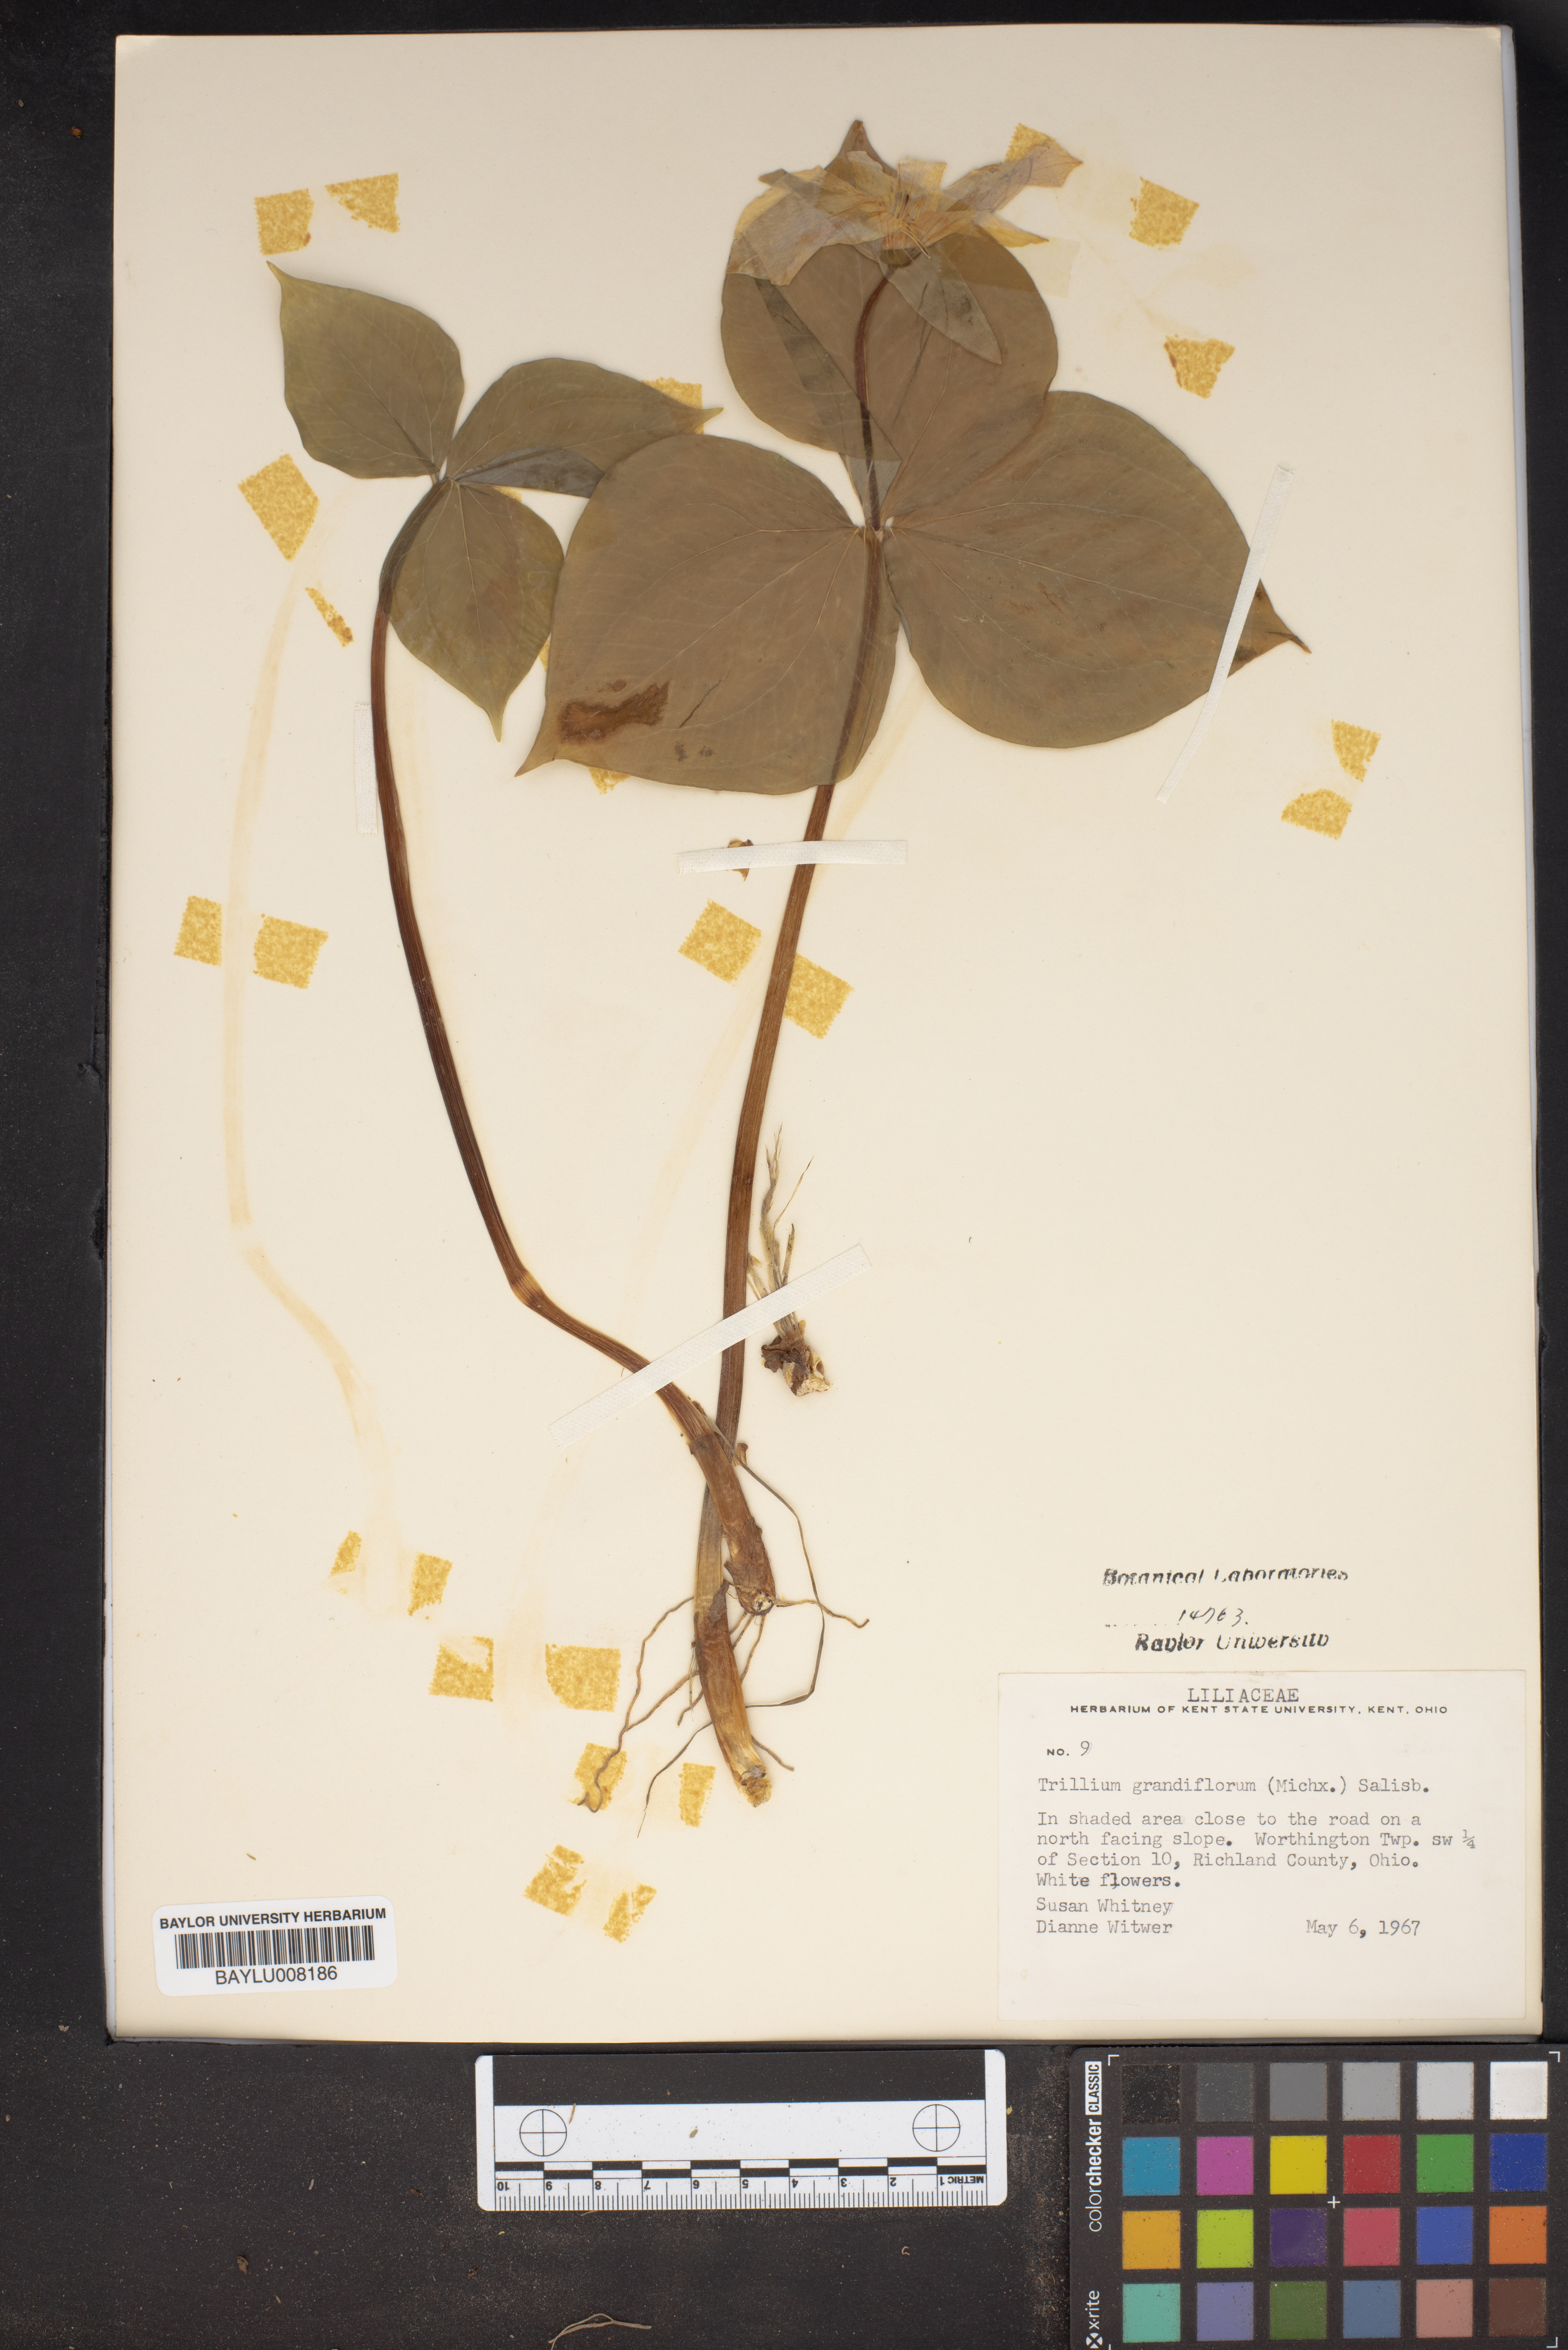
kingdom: Plantae
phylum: Tracheophyta
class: Liliopsida
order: Liliales
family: Melanthiaceae
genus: Trillium
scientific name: Trillium grandiflorum
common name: Great white trillium
